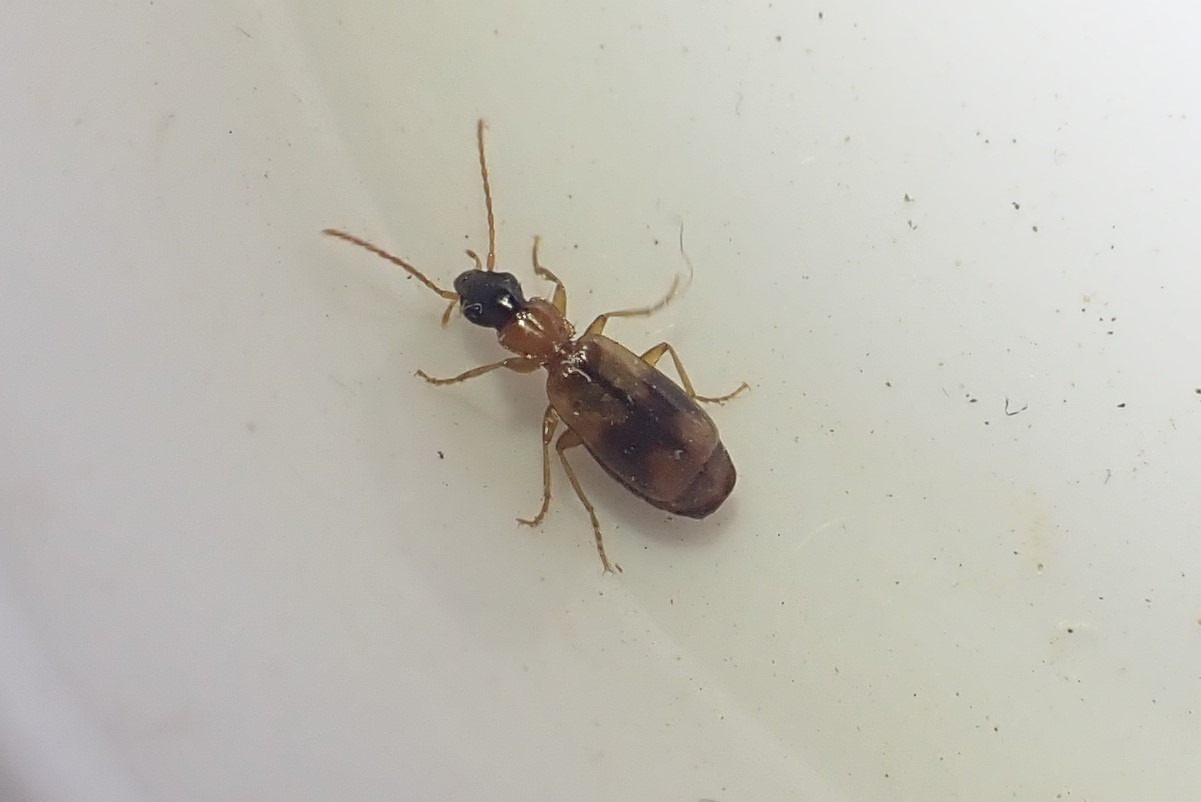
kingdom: Animalia
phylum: Arthropoda
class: Insecta
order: Coleoptera
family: Carabidae
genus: Philorhizus
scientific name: Philorhizus sigma
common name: Båndtegnet sivløber
